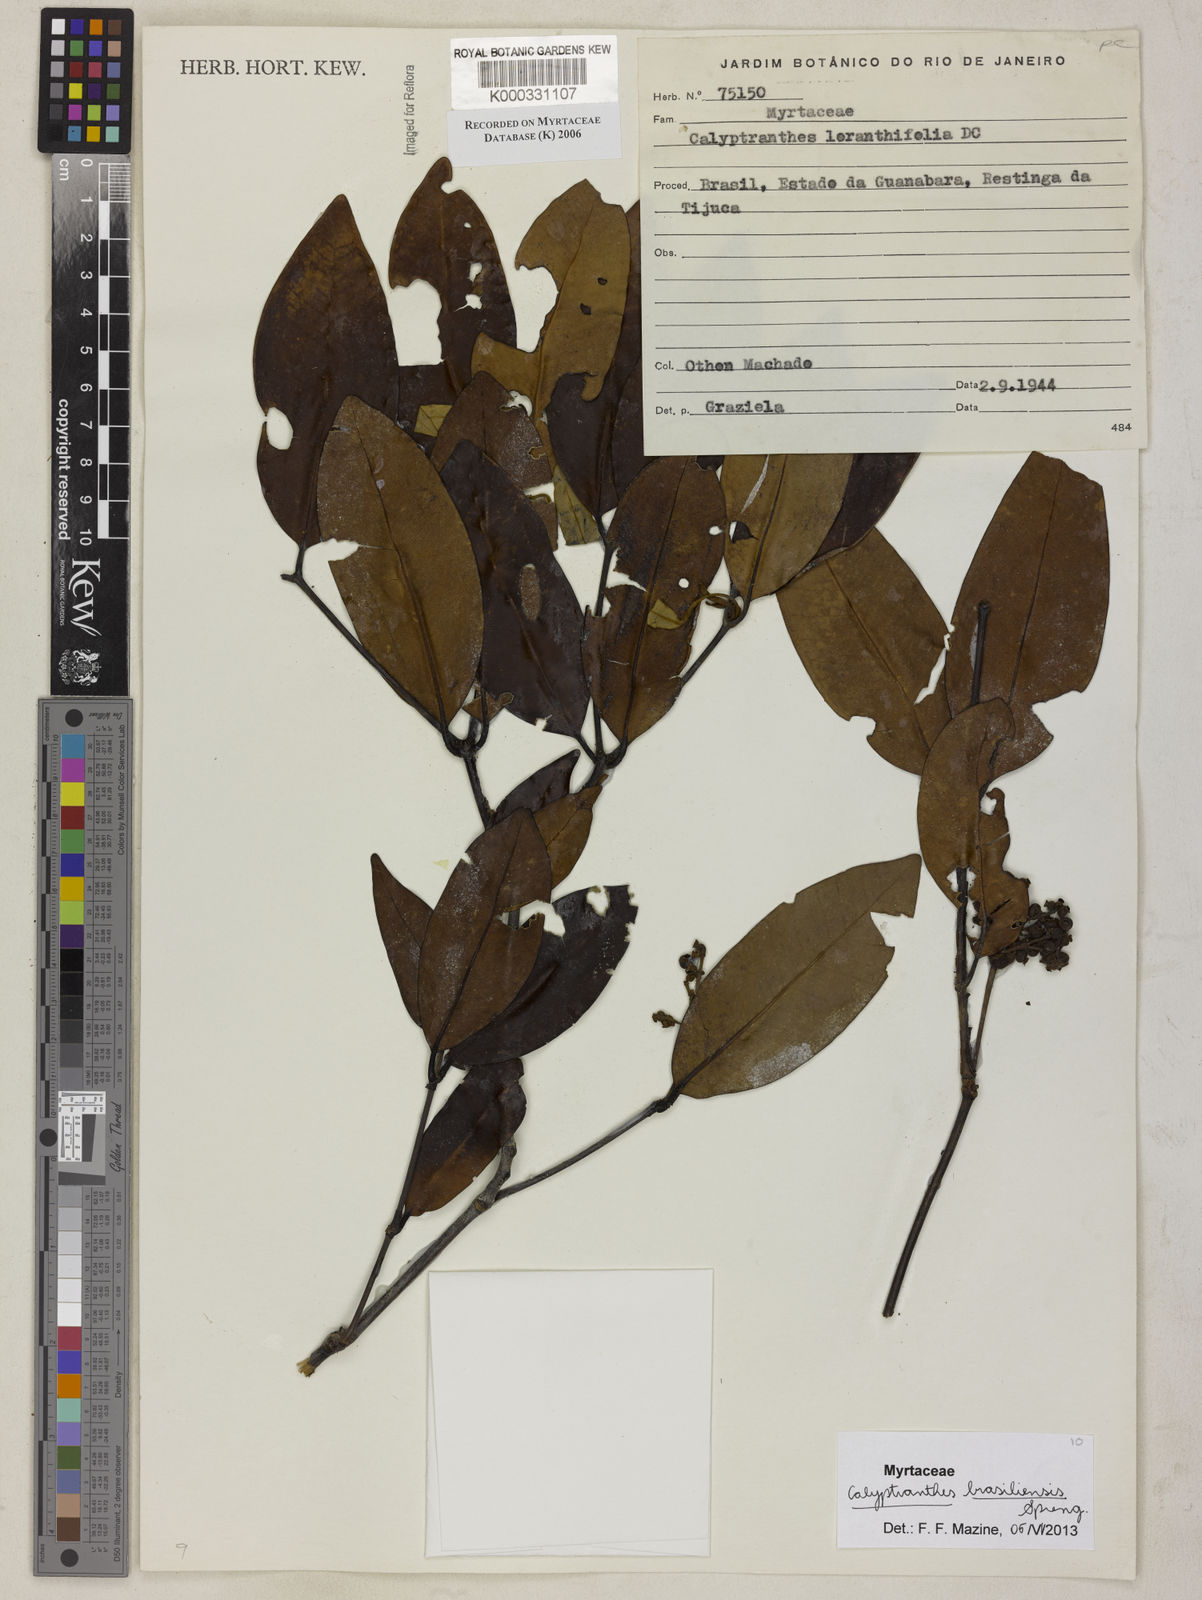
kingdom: Plantae
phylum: Tracheophyta
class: Magnoliopsida
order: Myrtales
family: Myrtaceae
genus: Myrcia
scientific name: Myrcia loranthifolia
